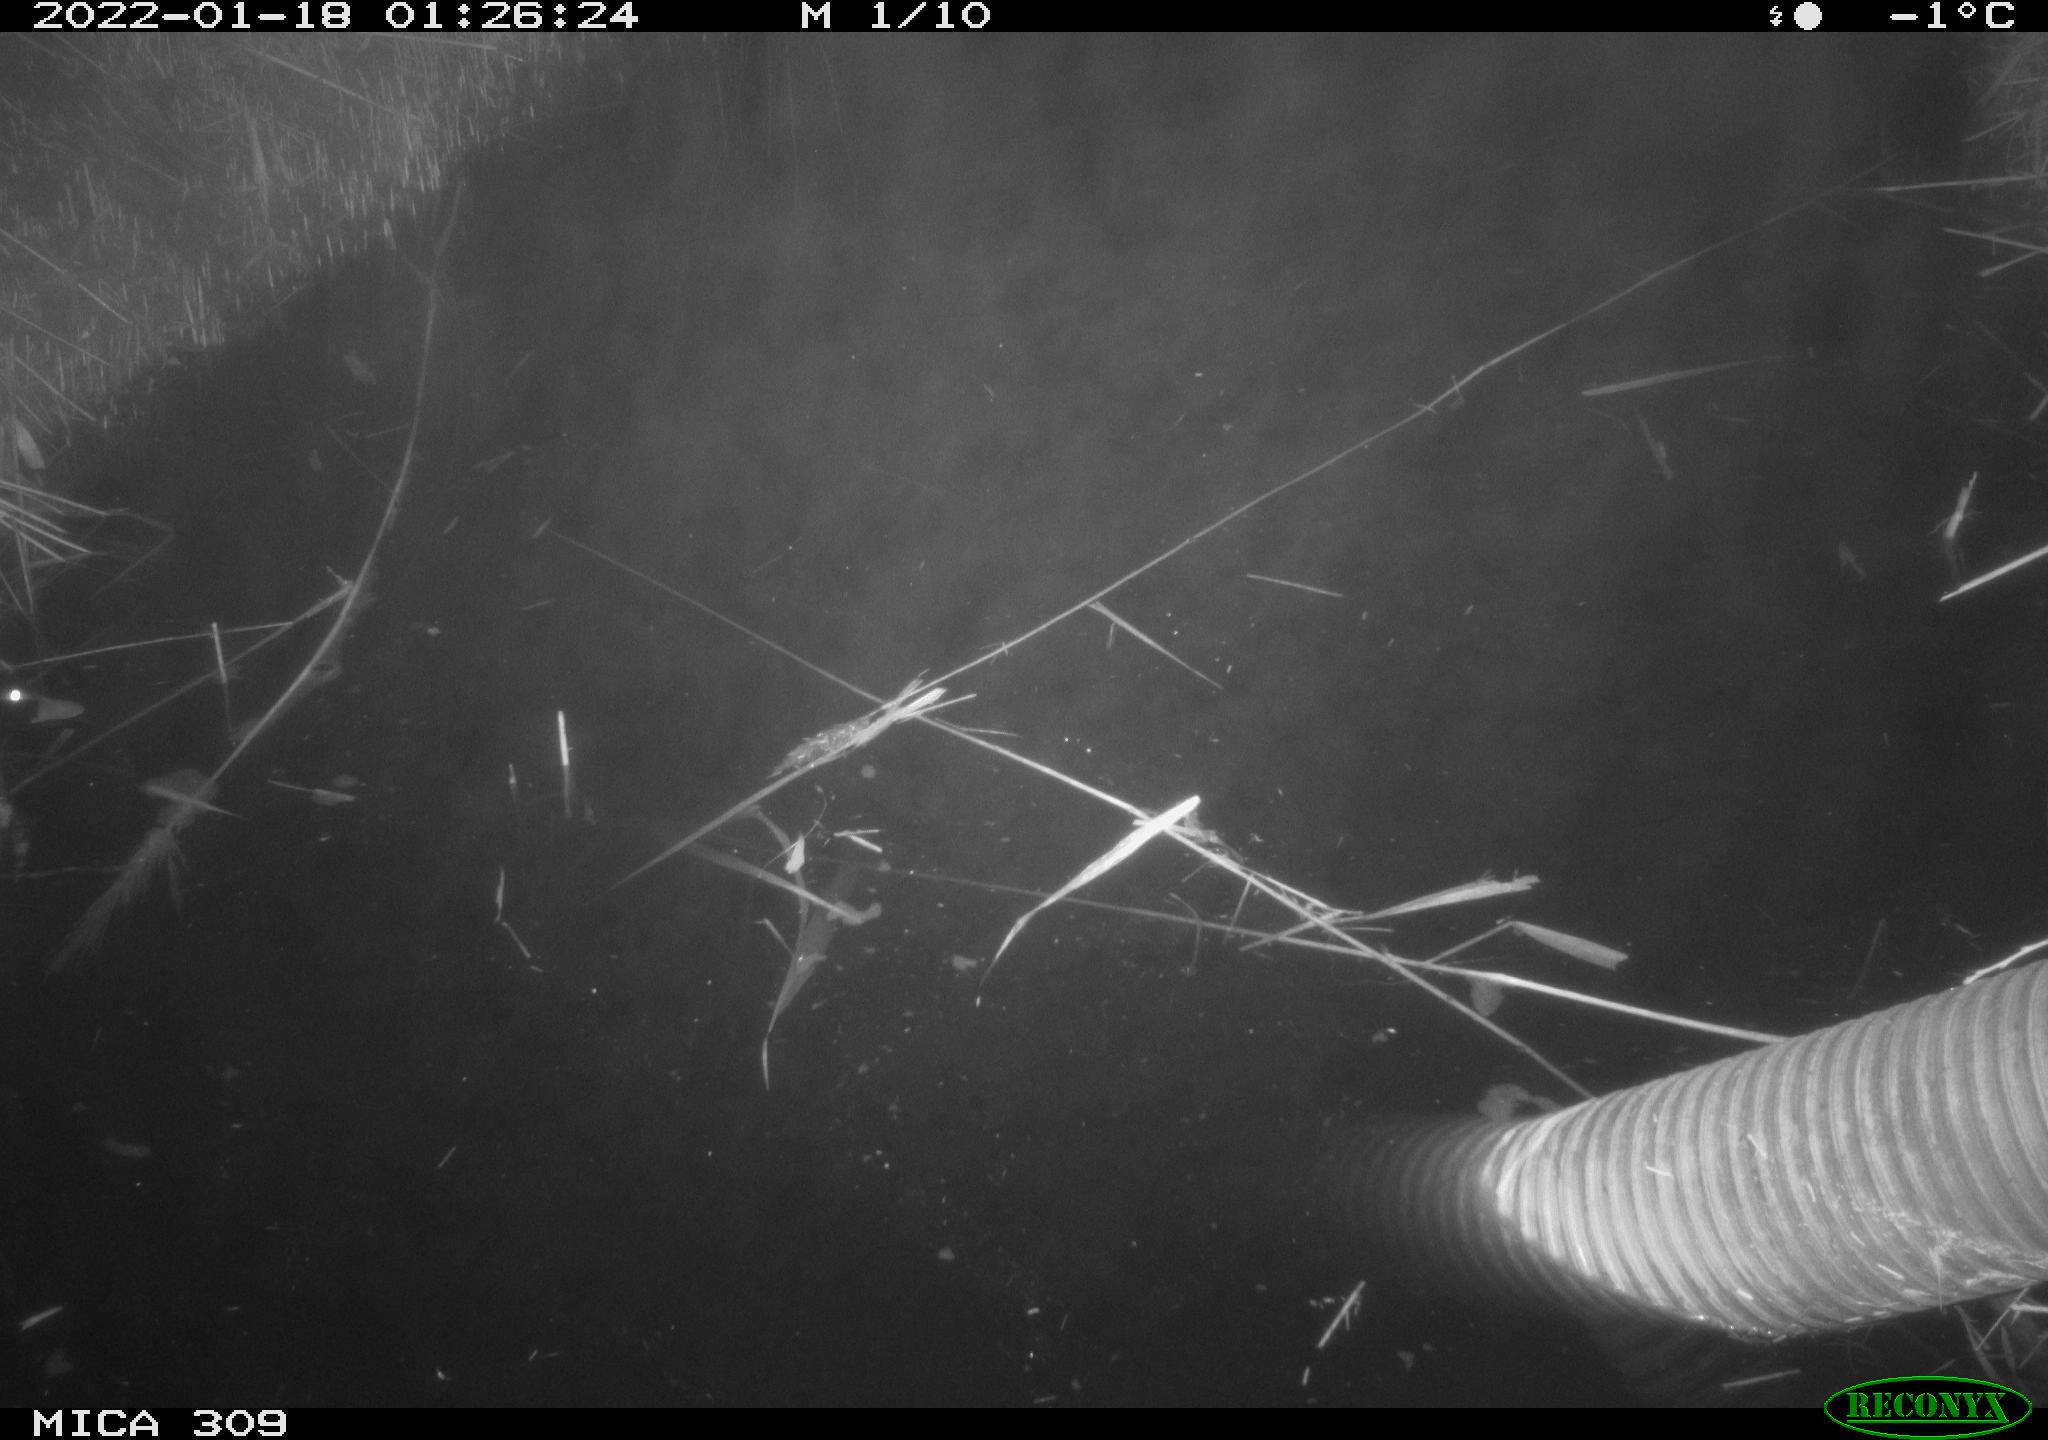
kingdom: Animalia
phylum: Chordata
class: Aves
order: Anseriformes
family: Anatidae
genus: Anas
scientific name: Anas platyrhynchos
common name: Mallard
